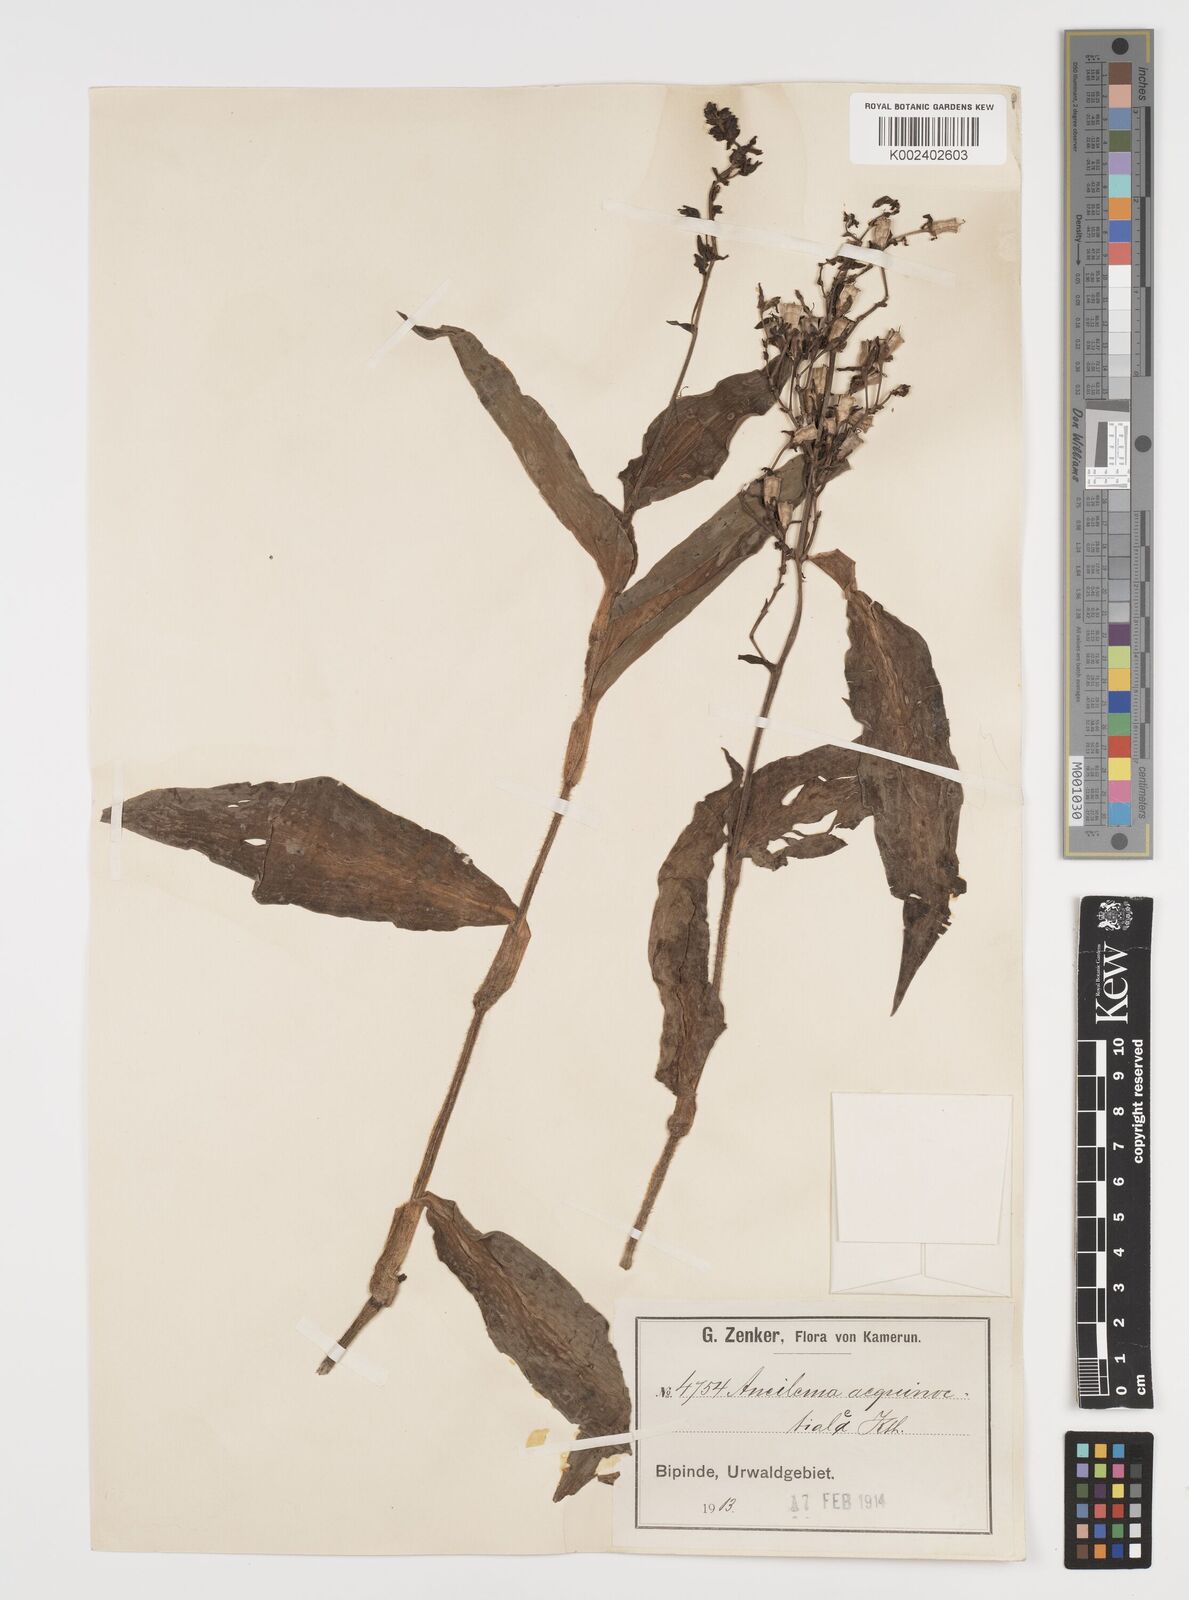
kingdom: Plantae
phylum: Tracheophyta
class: Liliopsida
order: Commelinales
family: Commelinaceae
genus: Aneilema
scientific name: Aneilema aequinoctiale
